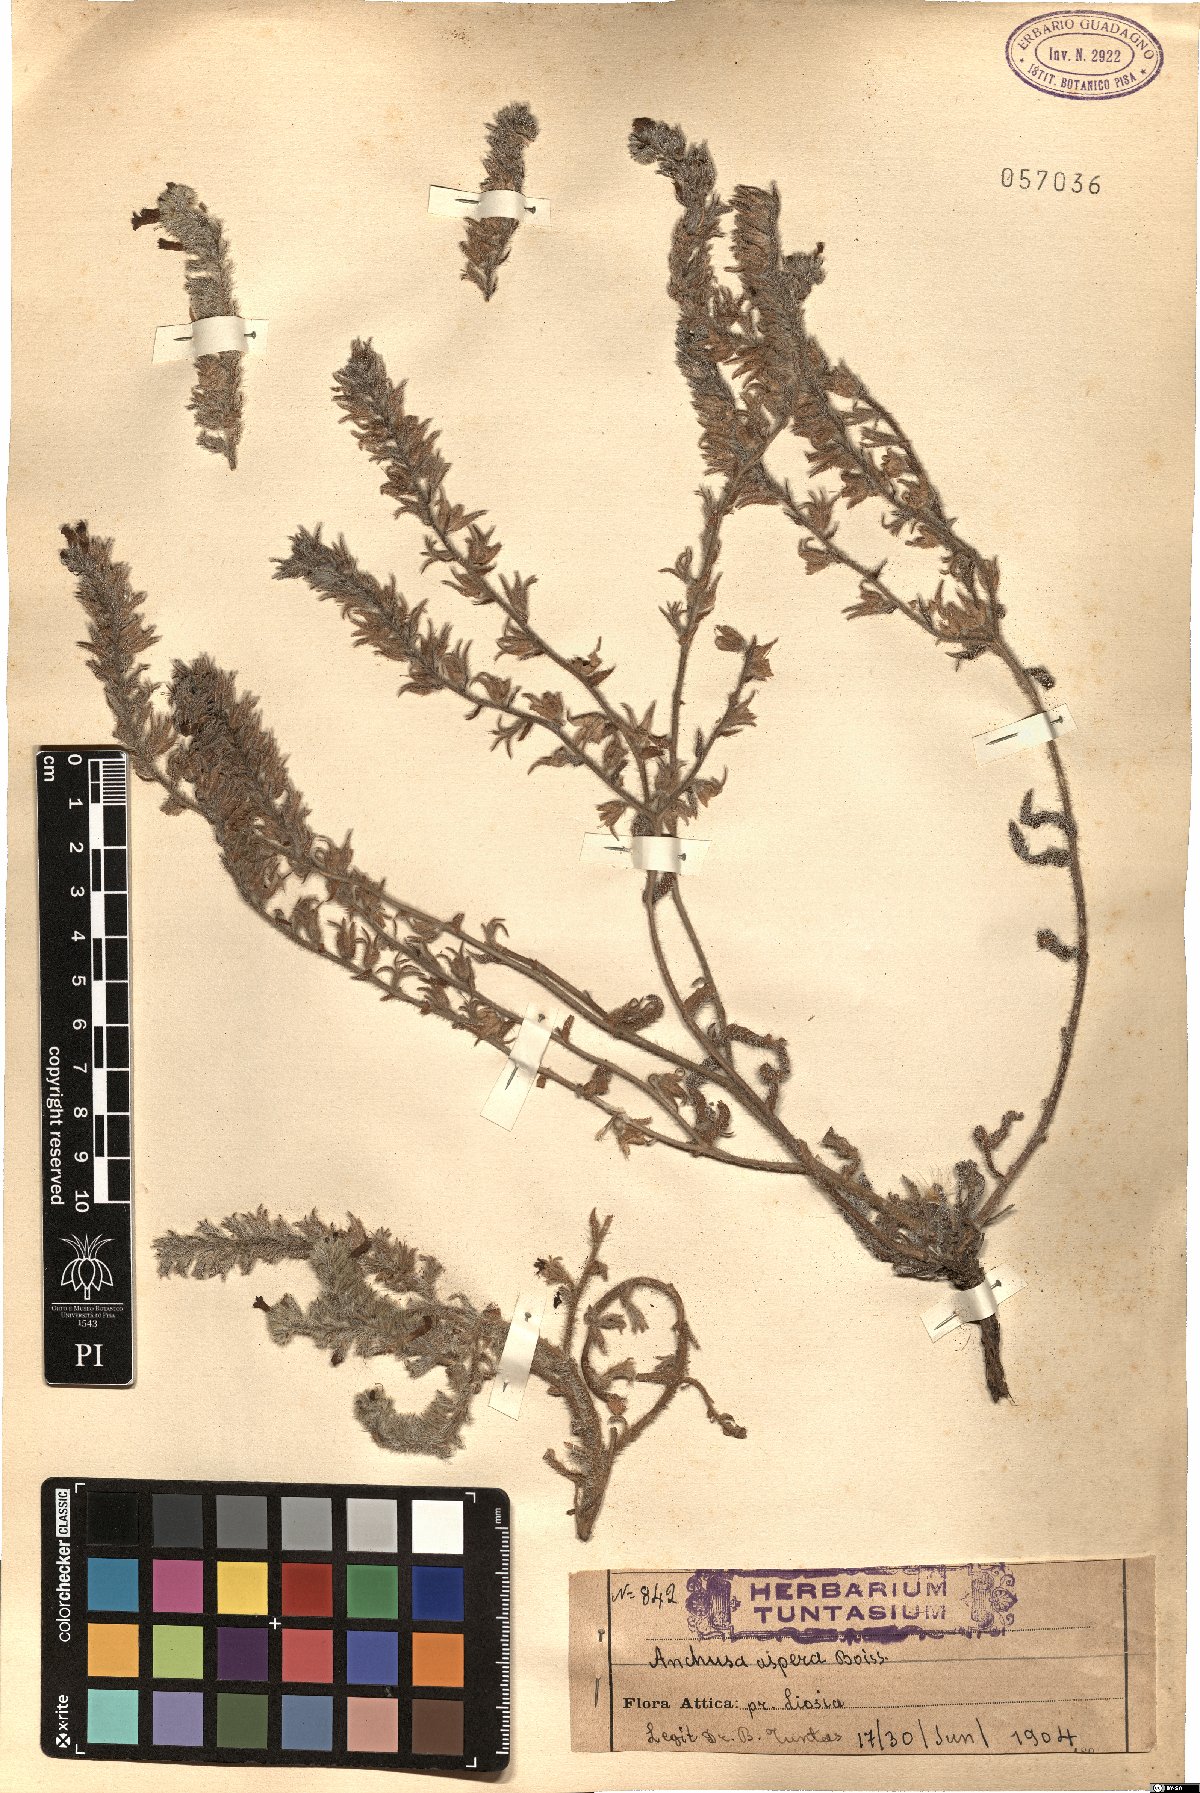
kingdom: Plantae
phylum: Tracheophyta
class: Magnoliopsida
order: Boraginales
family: Boraginaceae
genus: Anchusa
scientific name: Anchusa leptophylla
